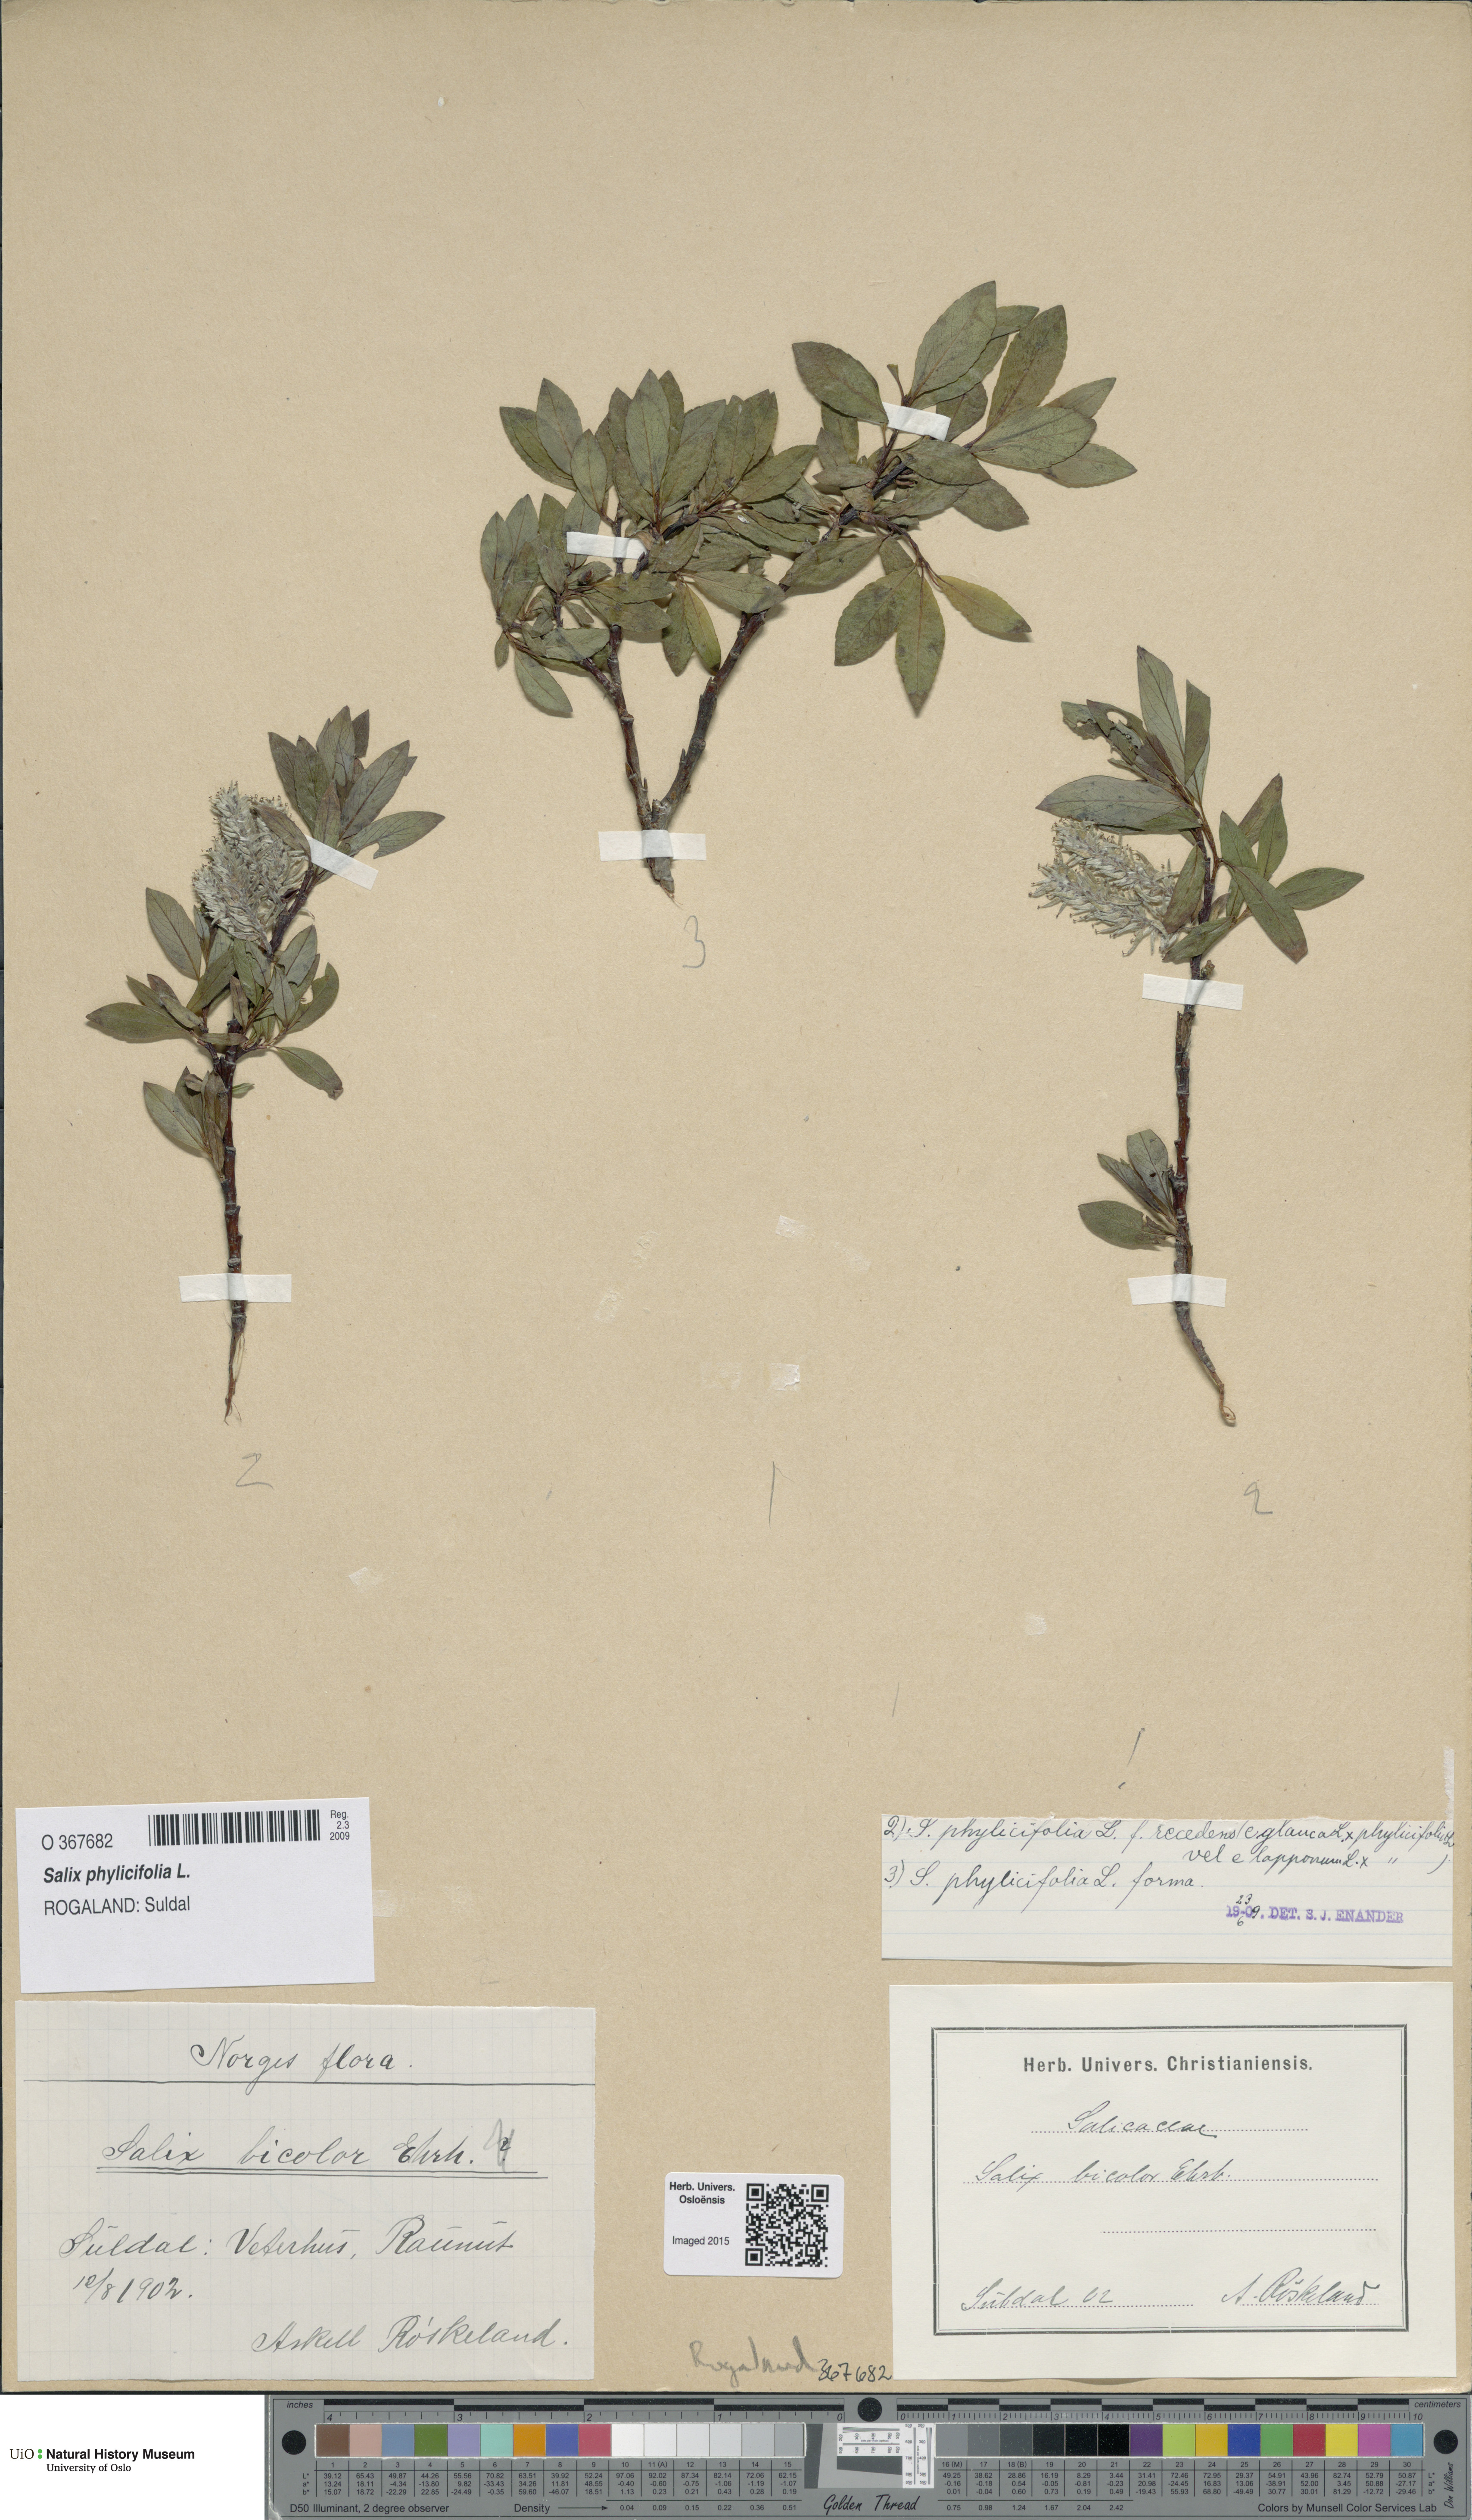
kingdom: Plantae
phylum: Tracheophyta
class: Magnoliopsida
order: Malpighiales
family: Salicaceae
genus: Salix
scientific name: Salix phylicifolia
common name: Tea-leaved willow
